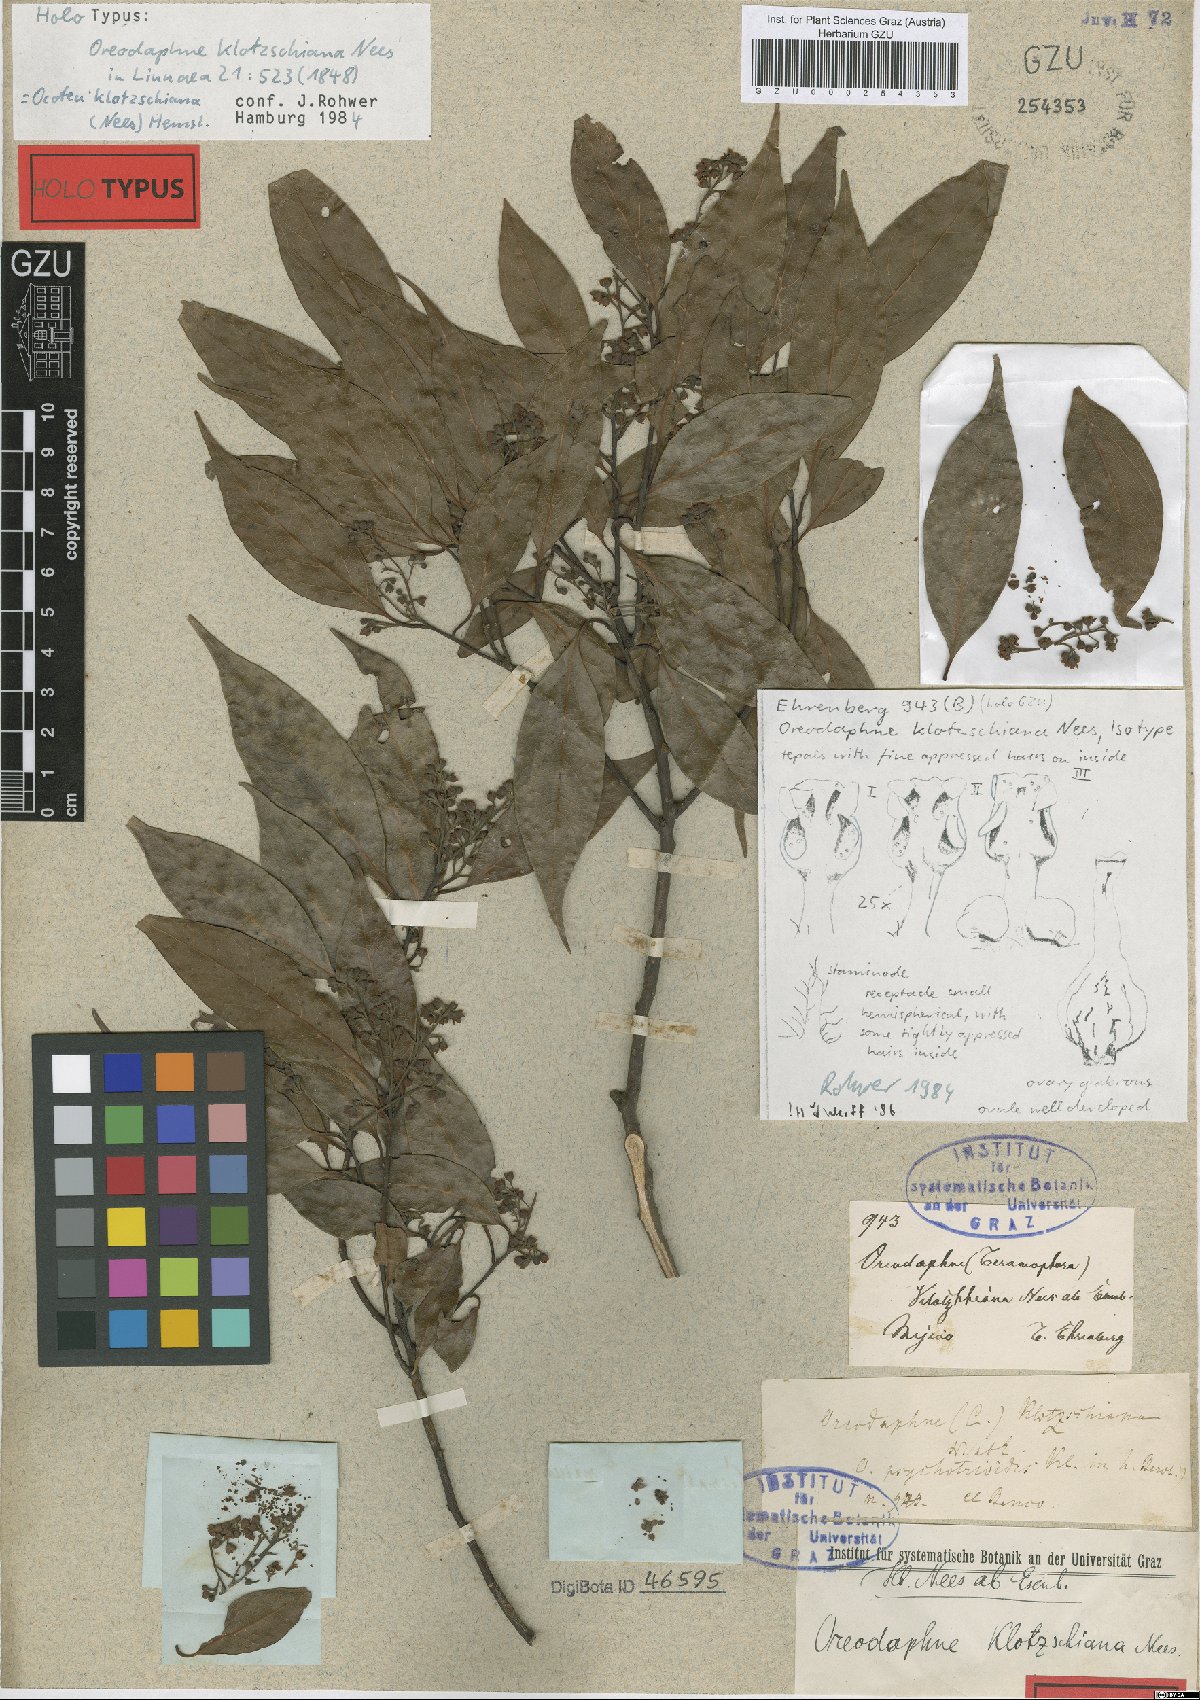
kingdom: Plantae
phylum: Tracheophyta
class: Magnoliopsida
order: Laurales
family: Lauraceae
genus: Ocotea
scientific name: Ocotea klotzschiana
